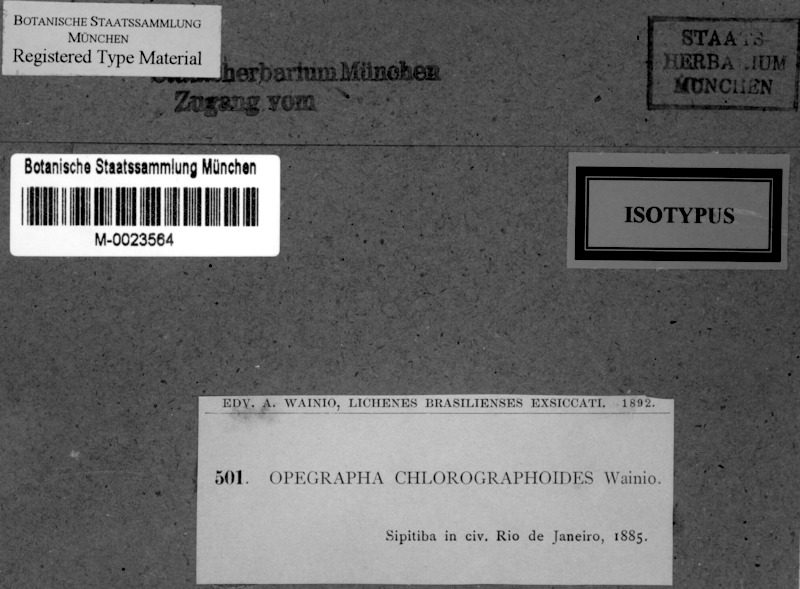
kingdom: Fungi
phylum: Ascomycota
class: Arthoniomycetes
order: Arthoniales
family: Opegraphaceae
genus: Opegrapha
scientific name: Opegrapha
